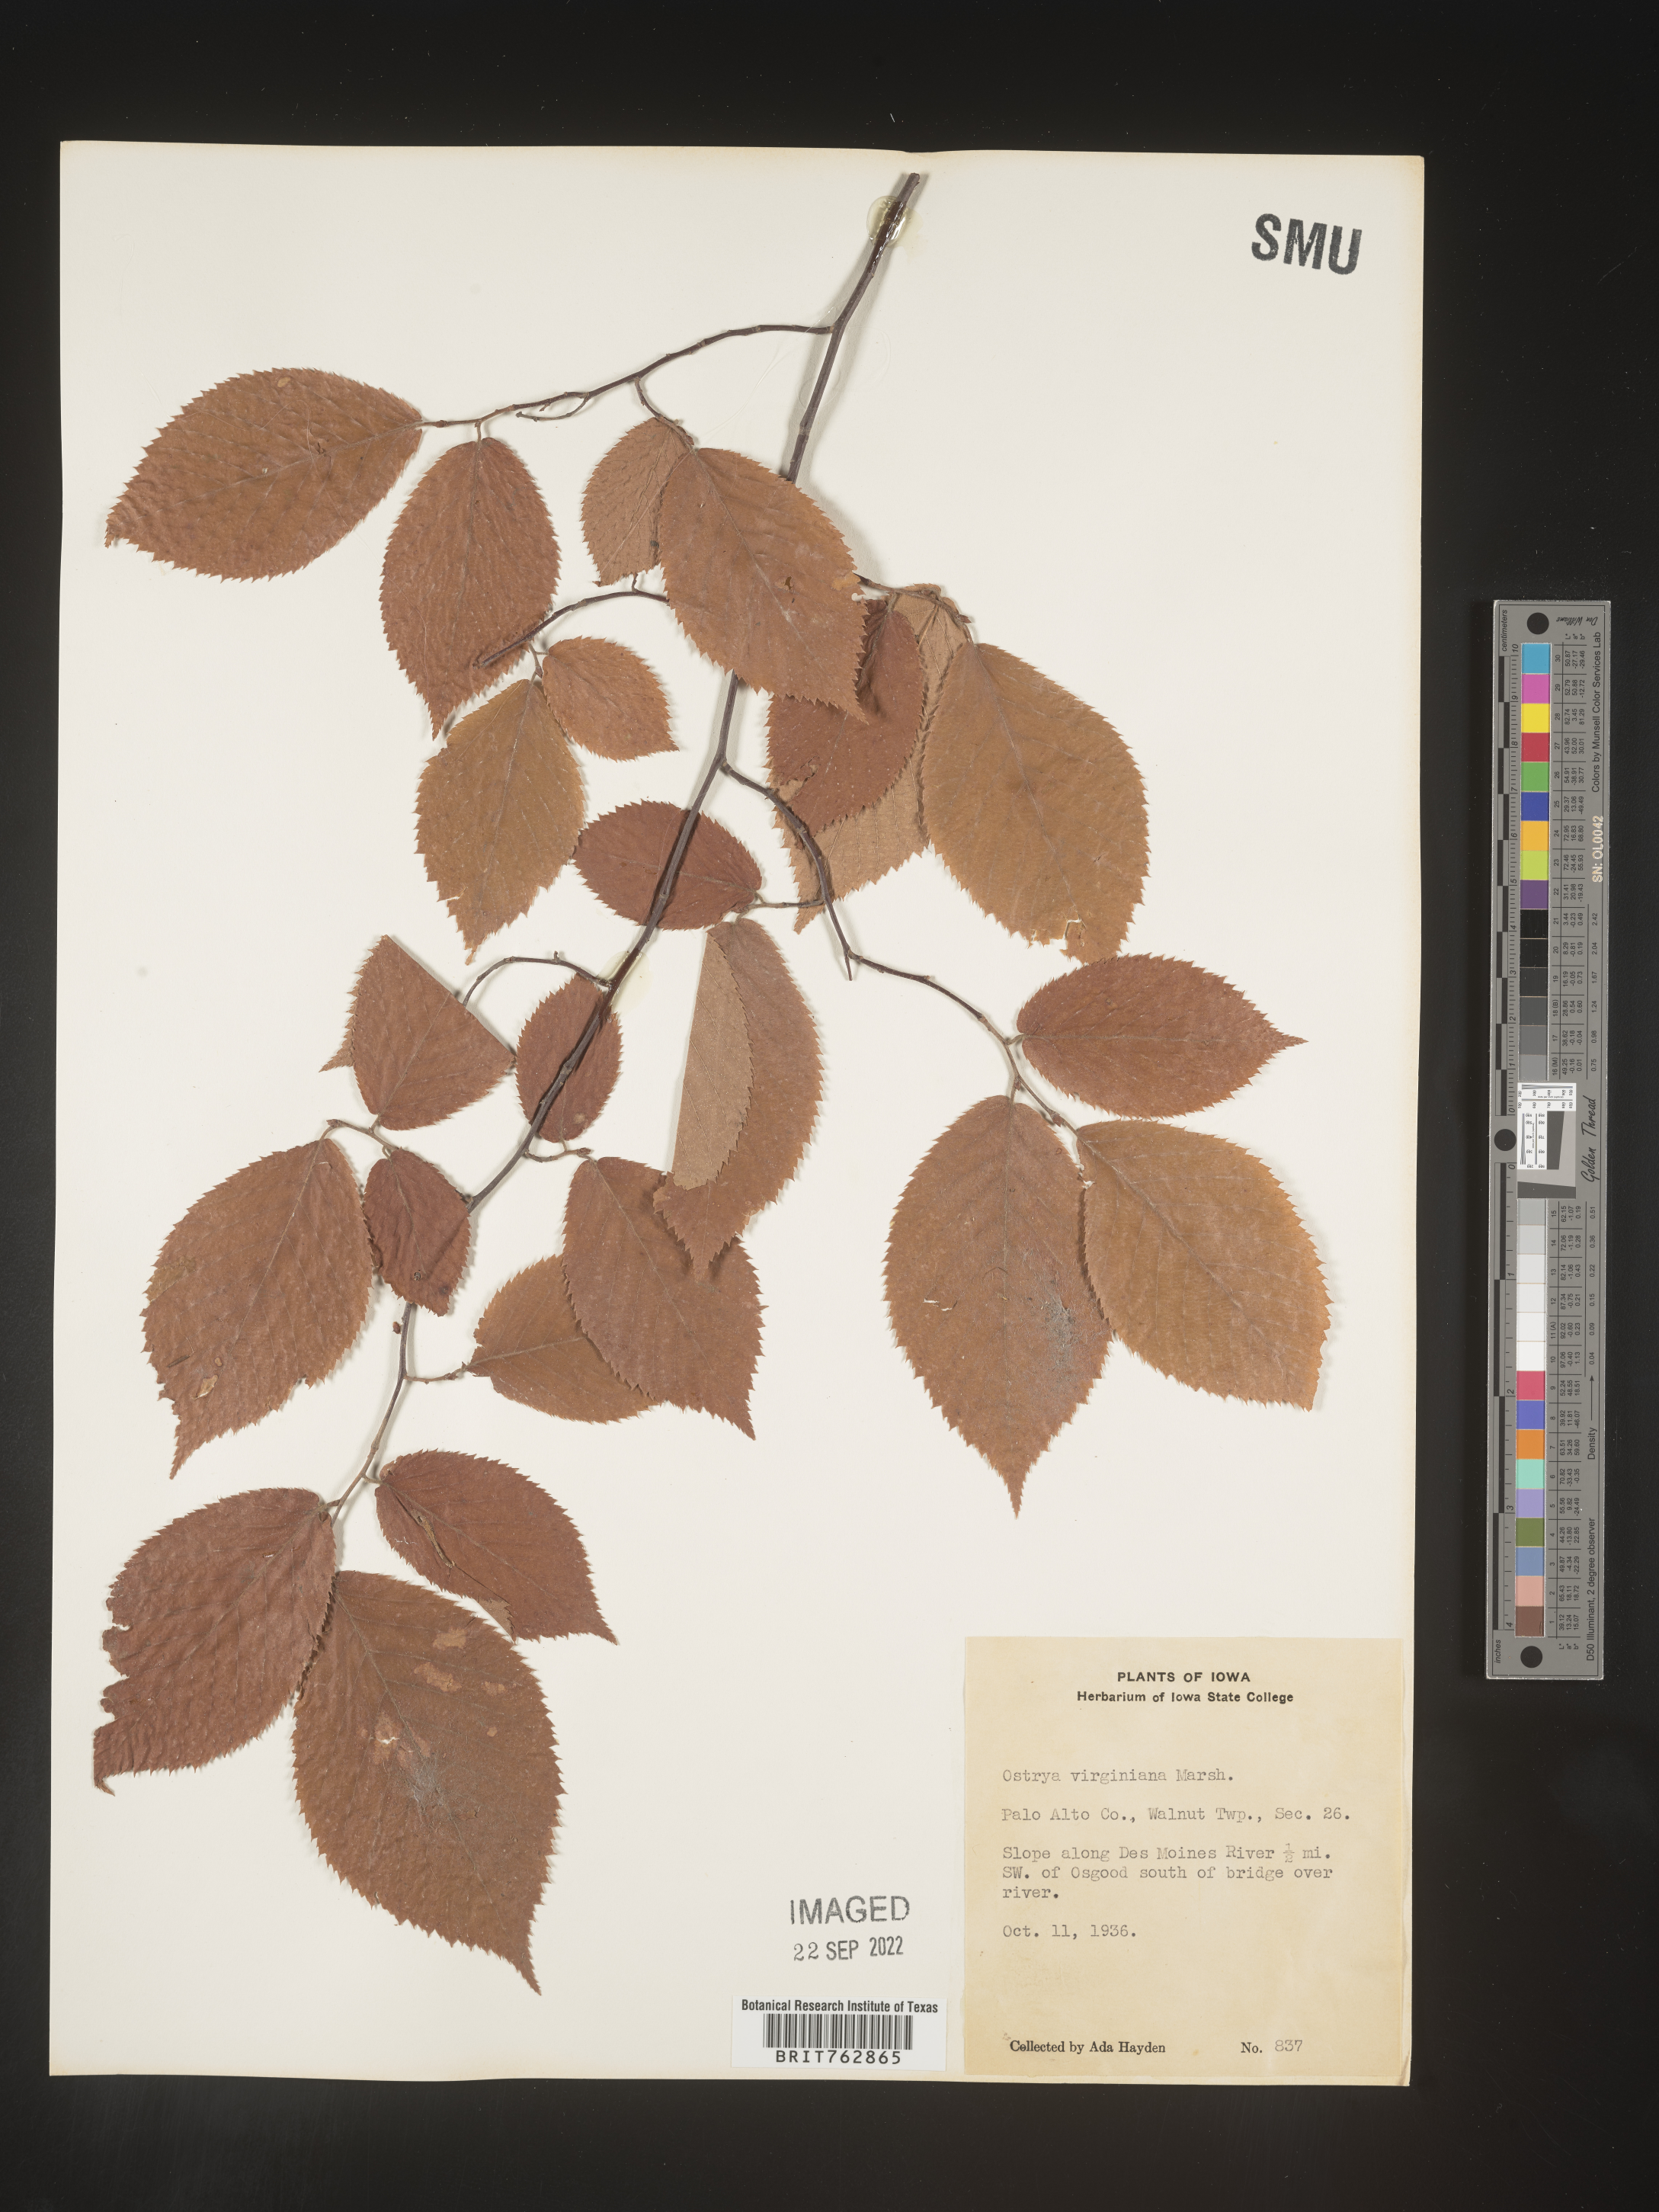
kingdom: Plantae
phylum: Tracheophyta
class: Magnoliopsida
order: Fagales
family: Betulaceae
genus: Ostrya
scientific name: Ostrya virginiana
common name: Ironwood
